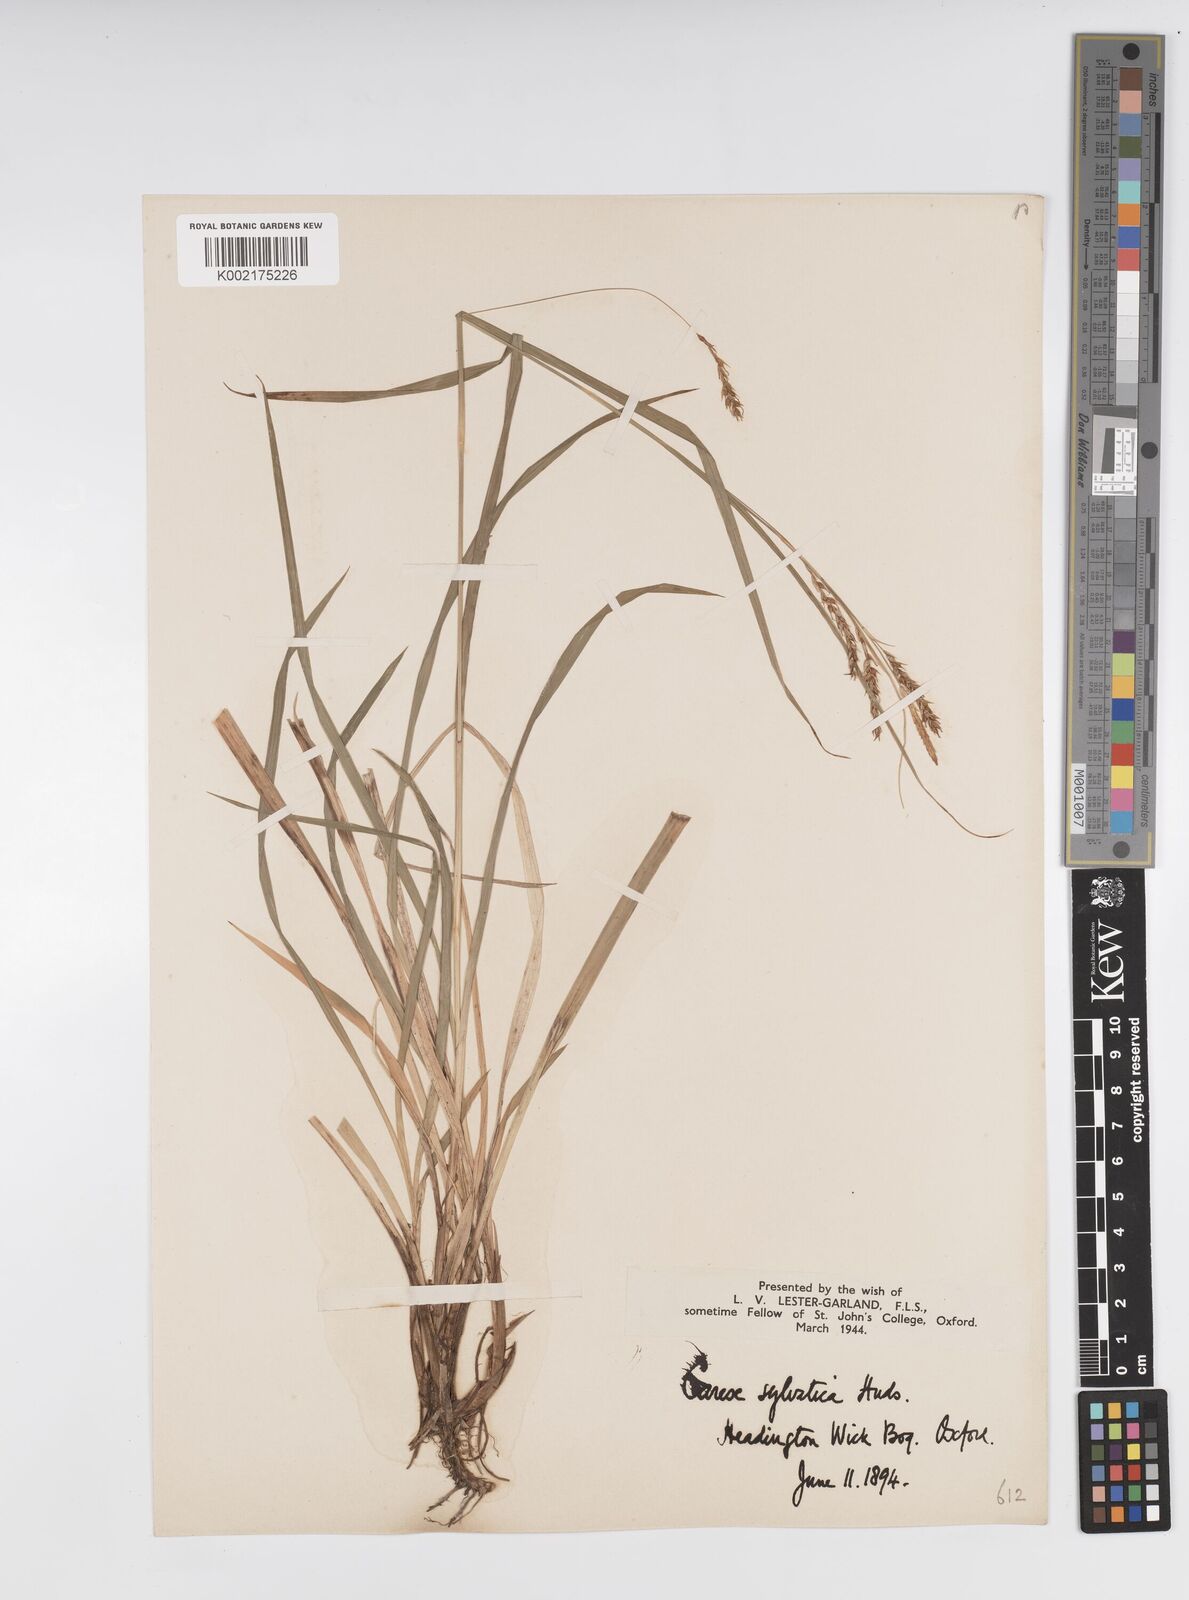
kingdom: Plantae
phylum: Tracheophyta
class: Liliopsida
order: Poales
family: Cyperaceae
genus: Carex
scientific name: Carex sylvatica
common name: Wood-sedge
